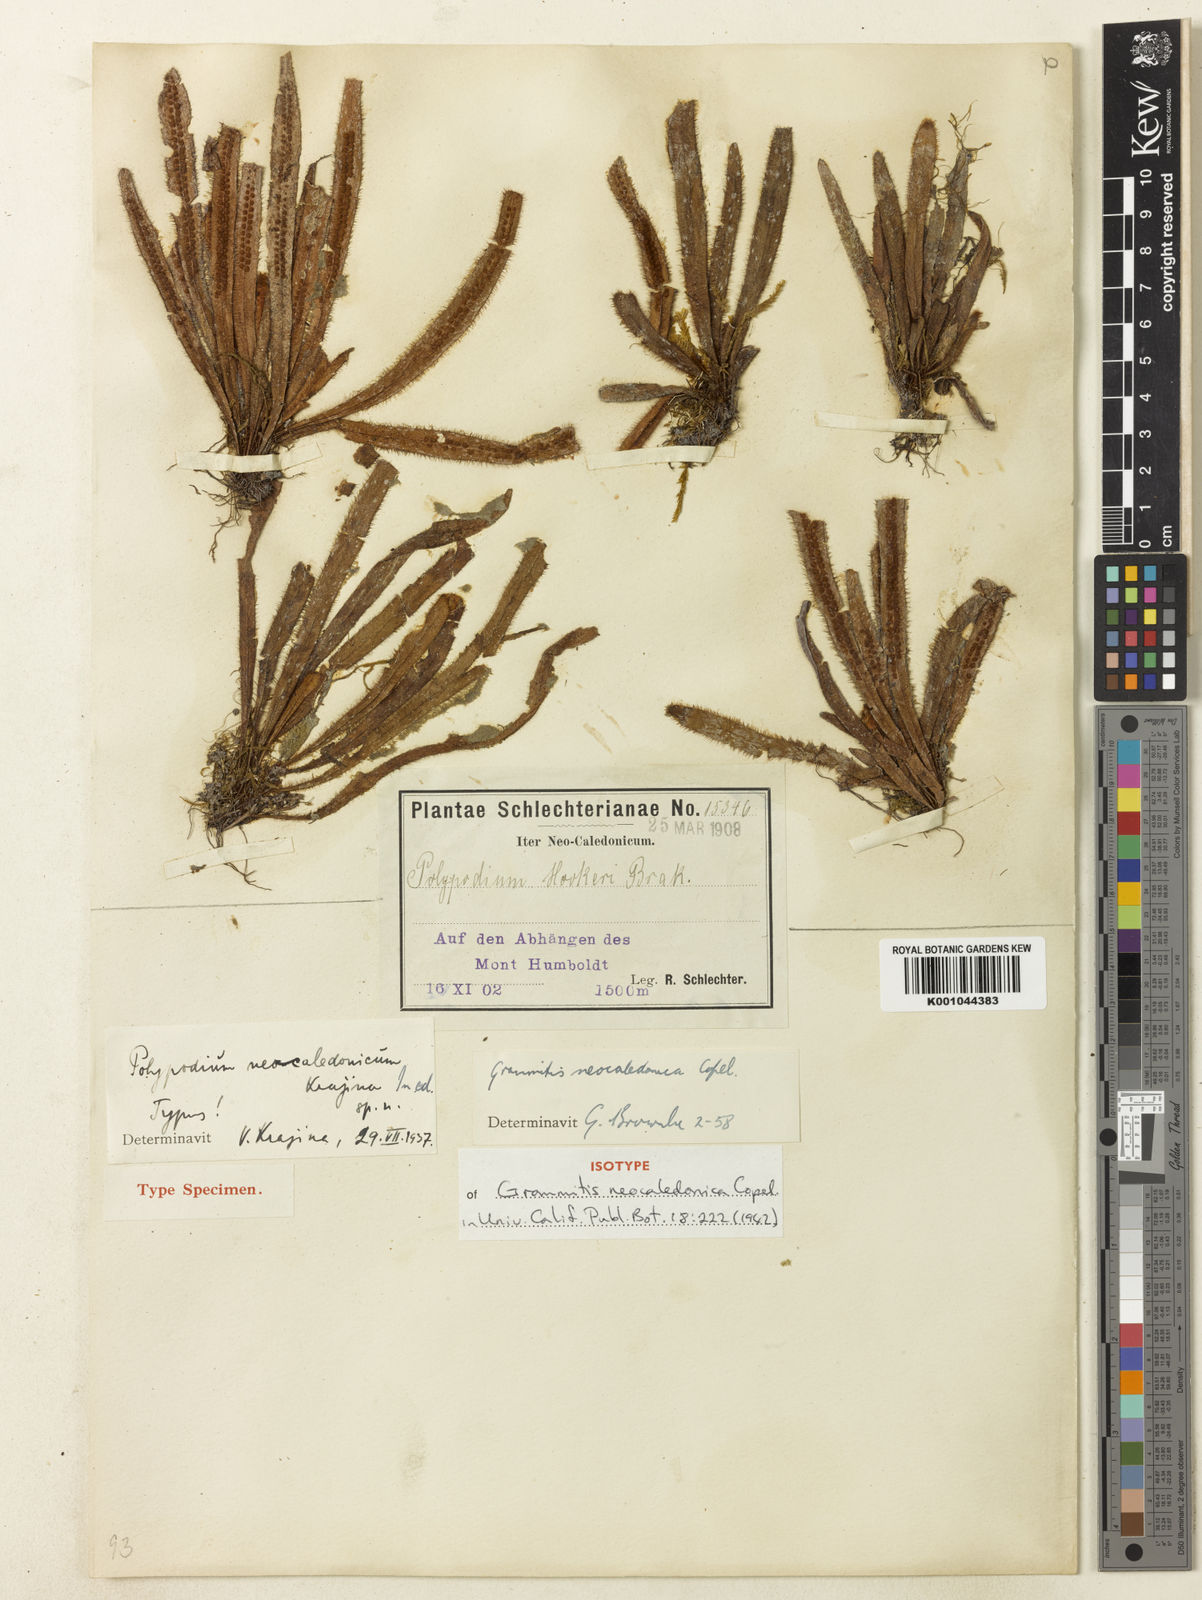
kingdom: Plantae
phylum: Tracheophyta
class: Polypodiopsida
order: Polypodiales
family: Polypodiaceae
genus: Oreogrammitis
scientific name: Oreogrammitis neocaledonica
